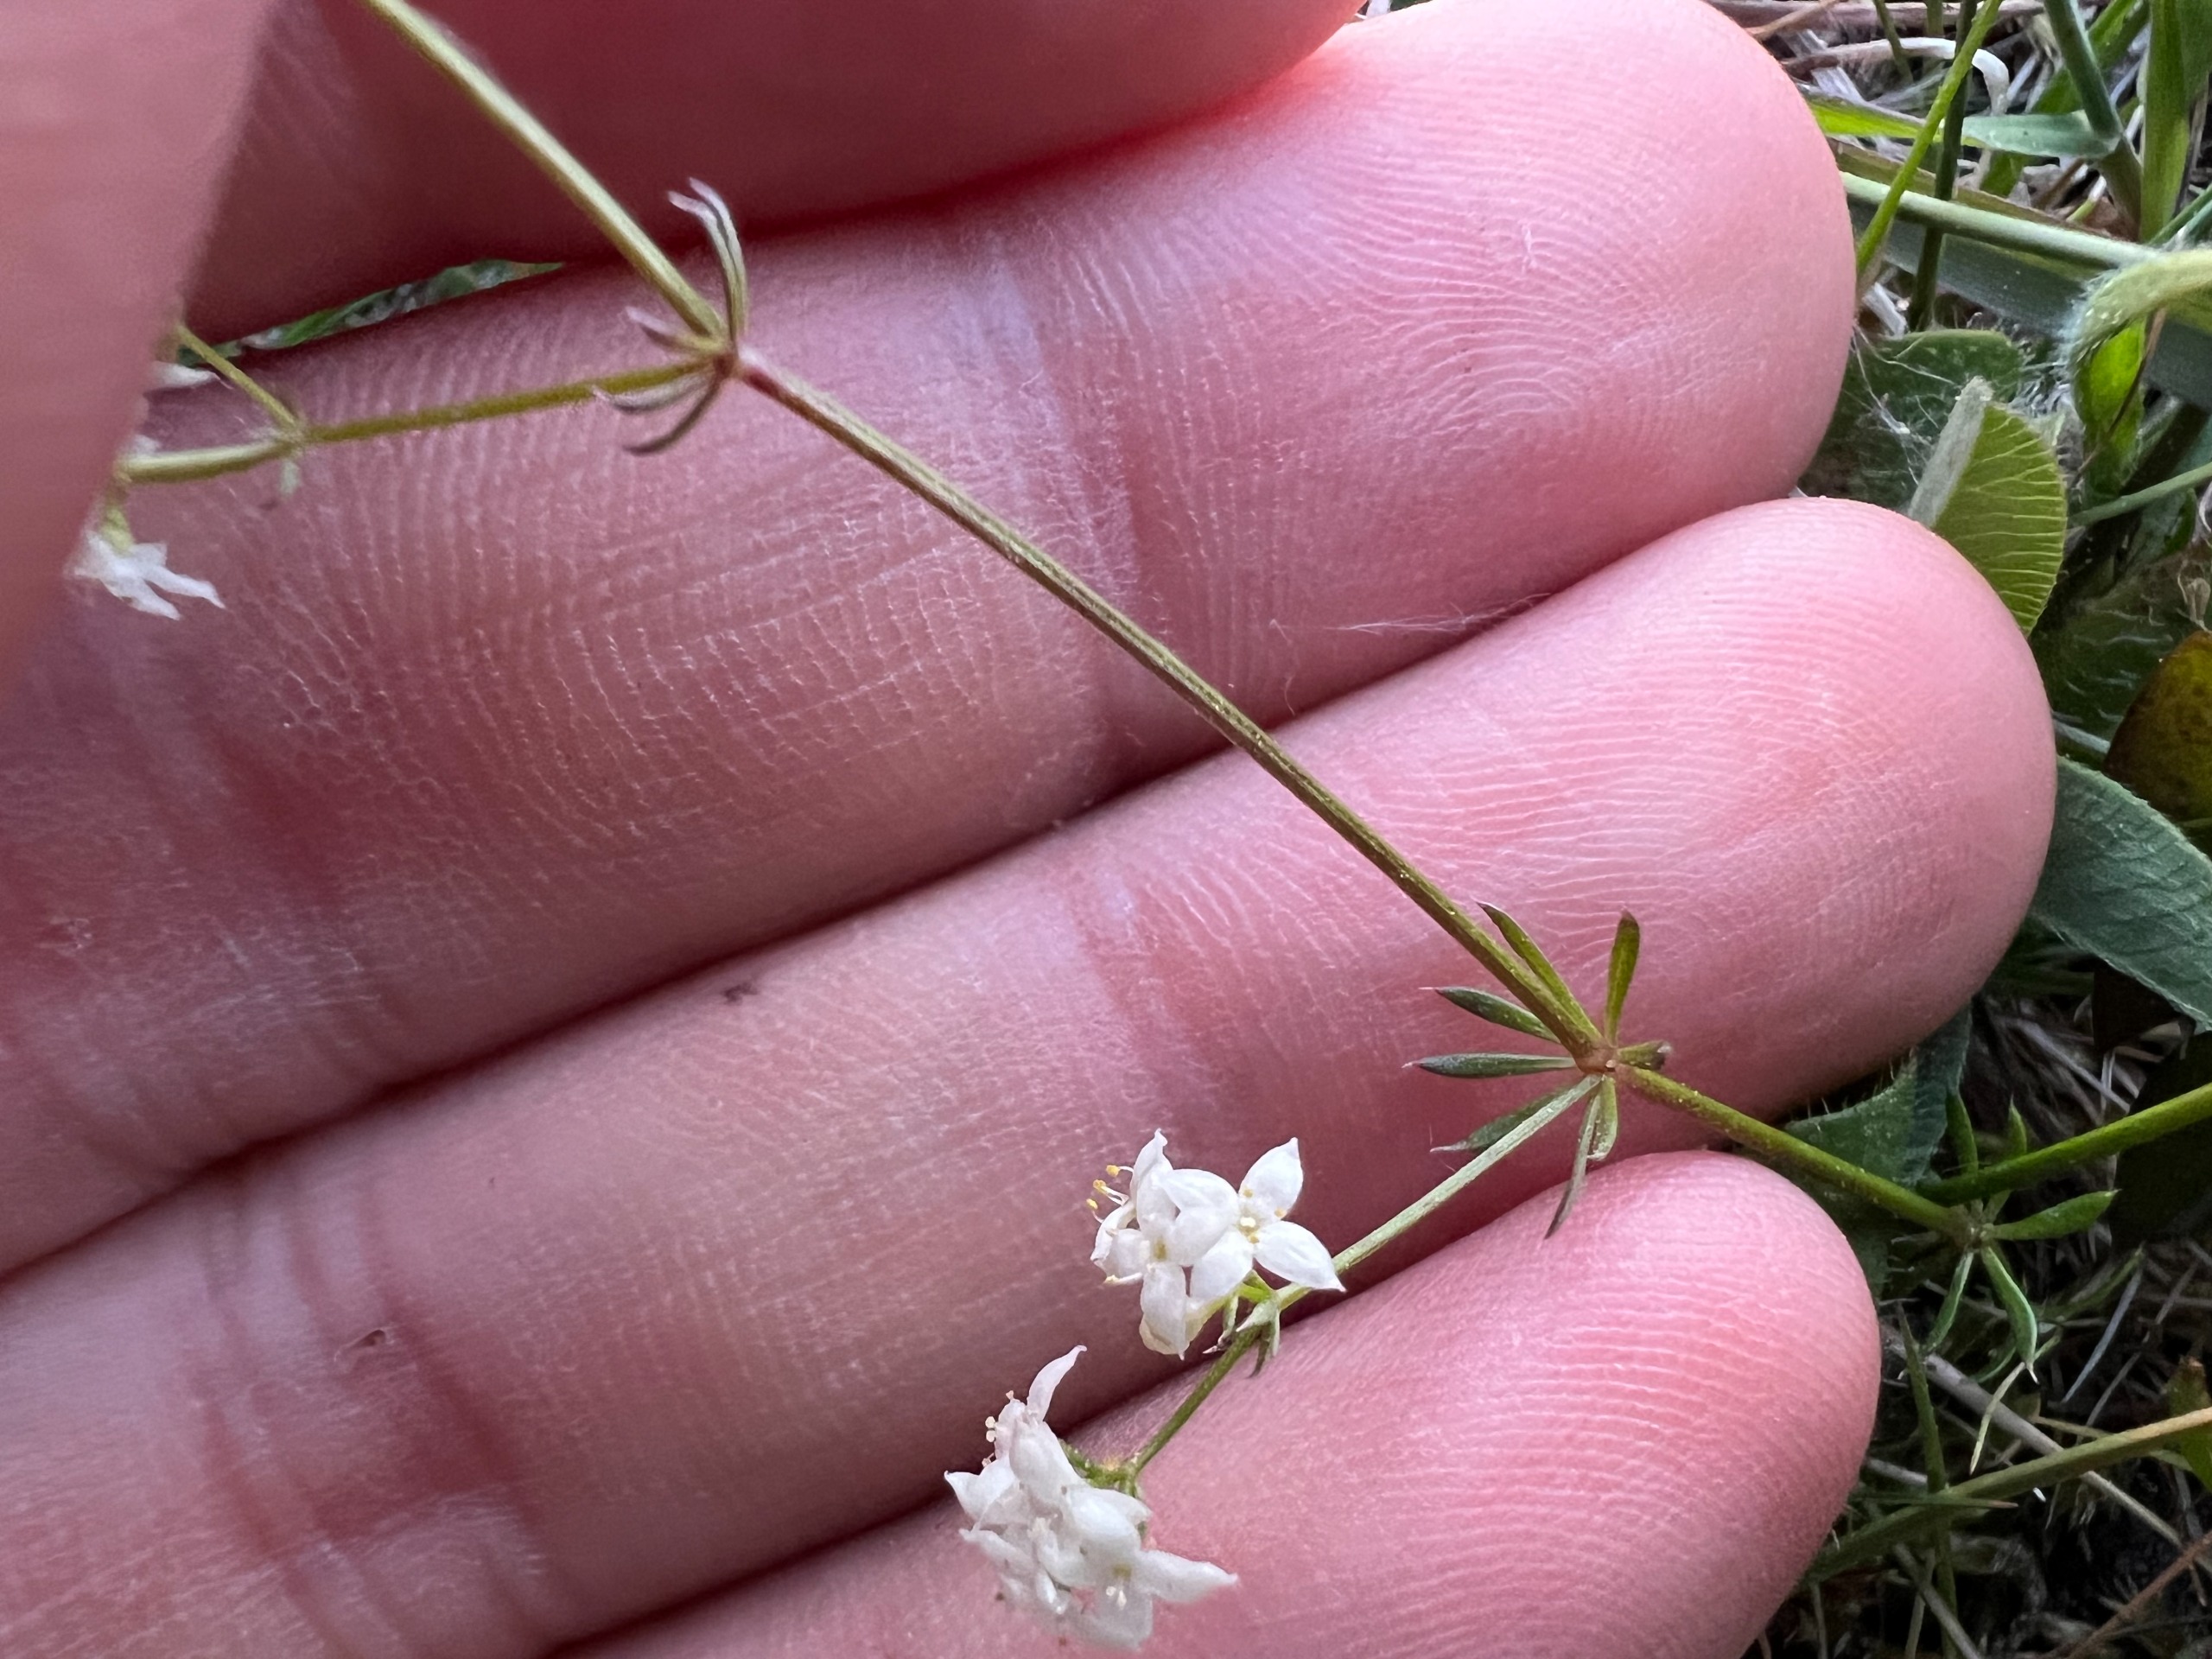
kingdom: Plantae
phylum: Tracheophyta
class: Magnoliopsida
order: Gentianales
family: Rubiaceae
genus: Galium
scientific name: Galium sterneri
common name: Liden snerre
